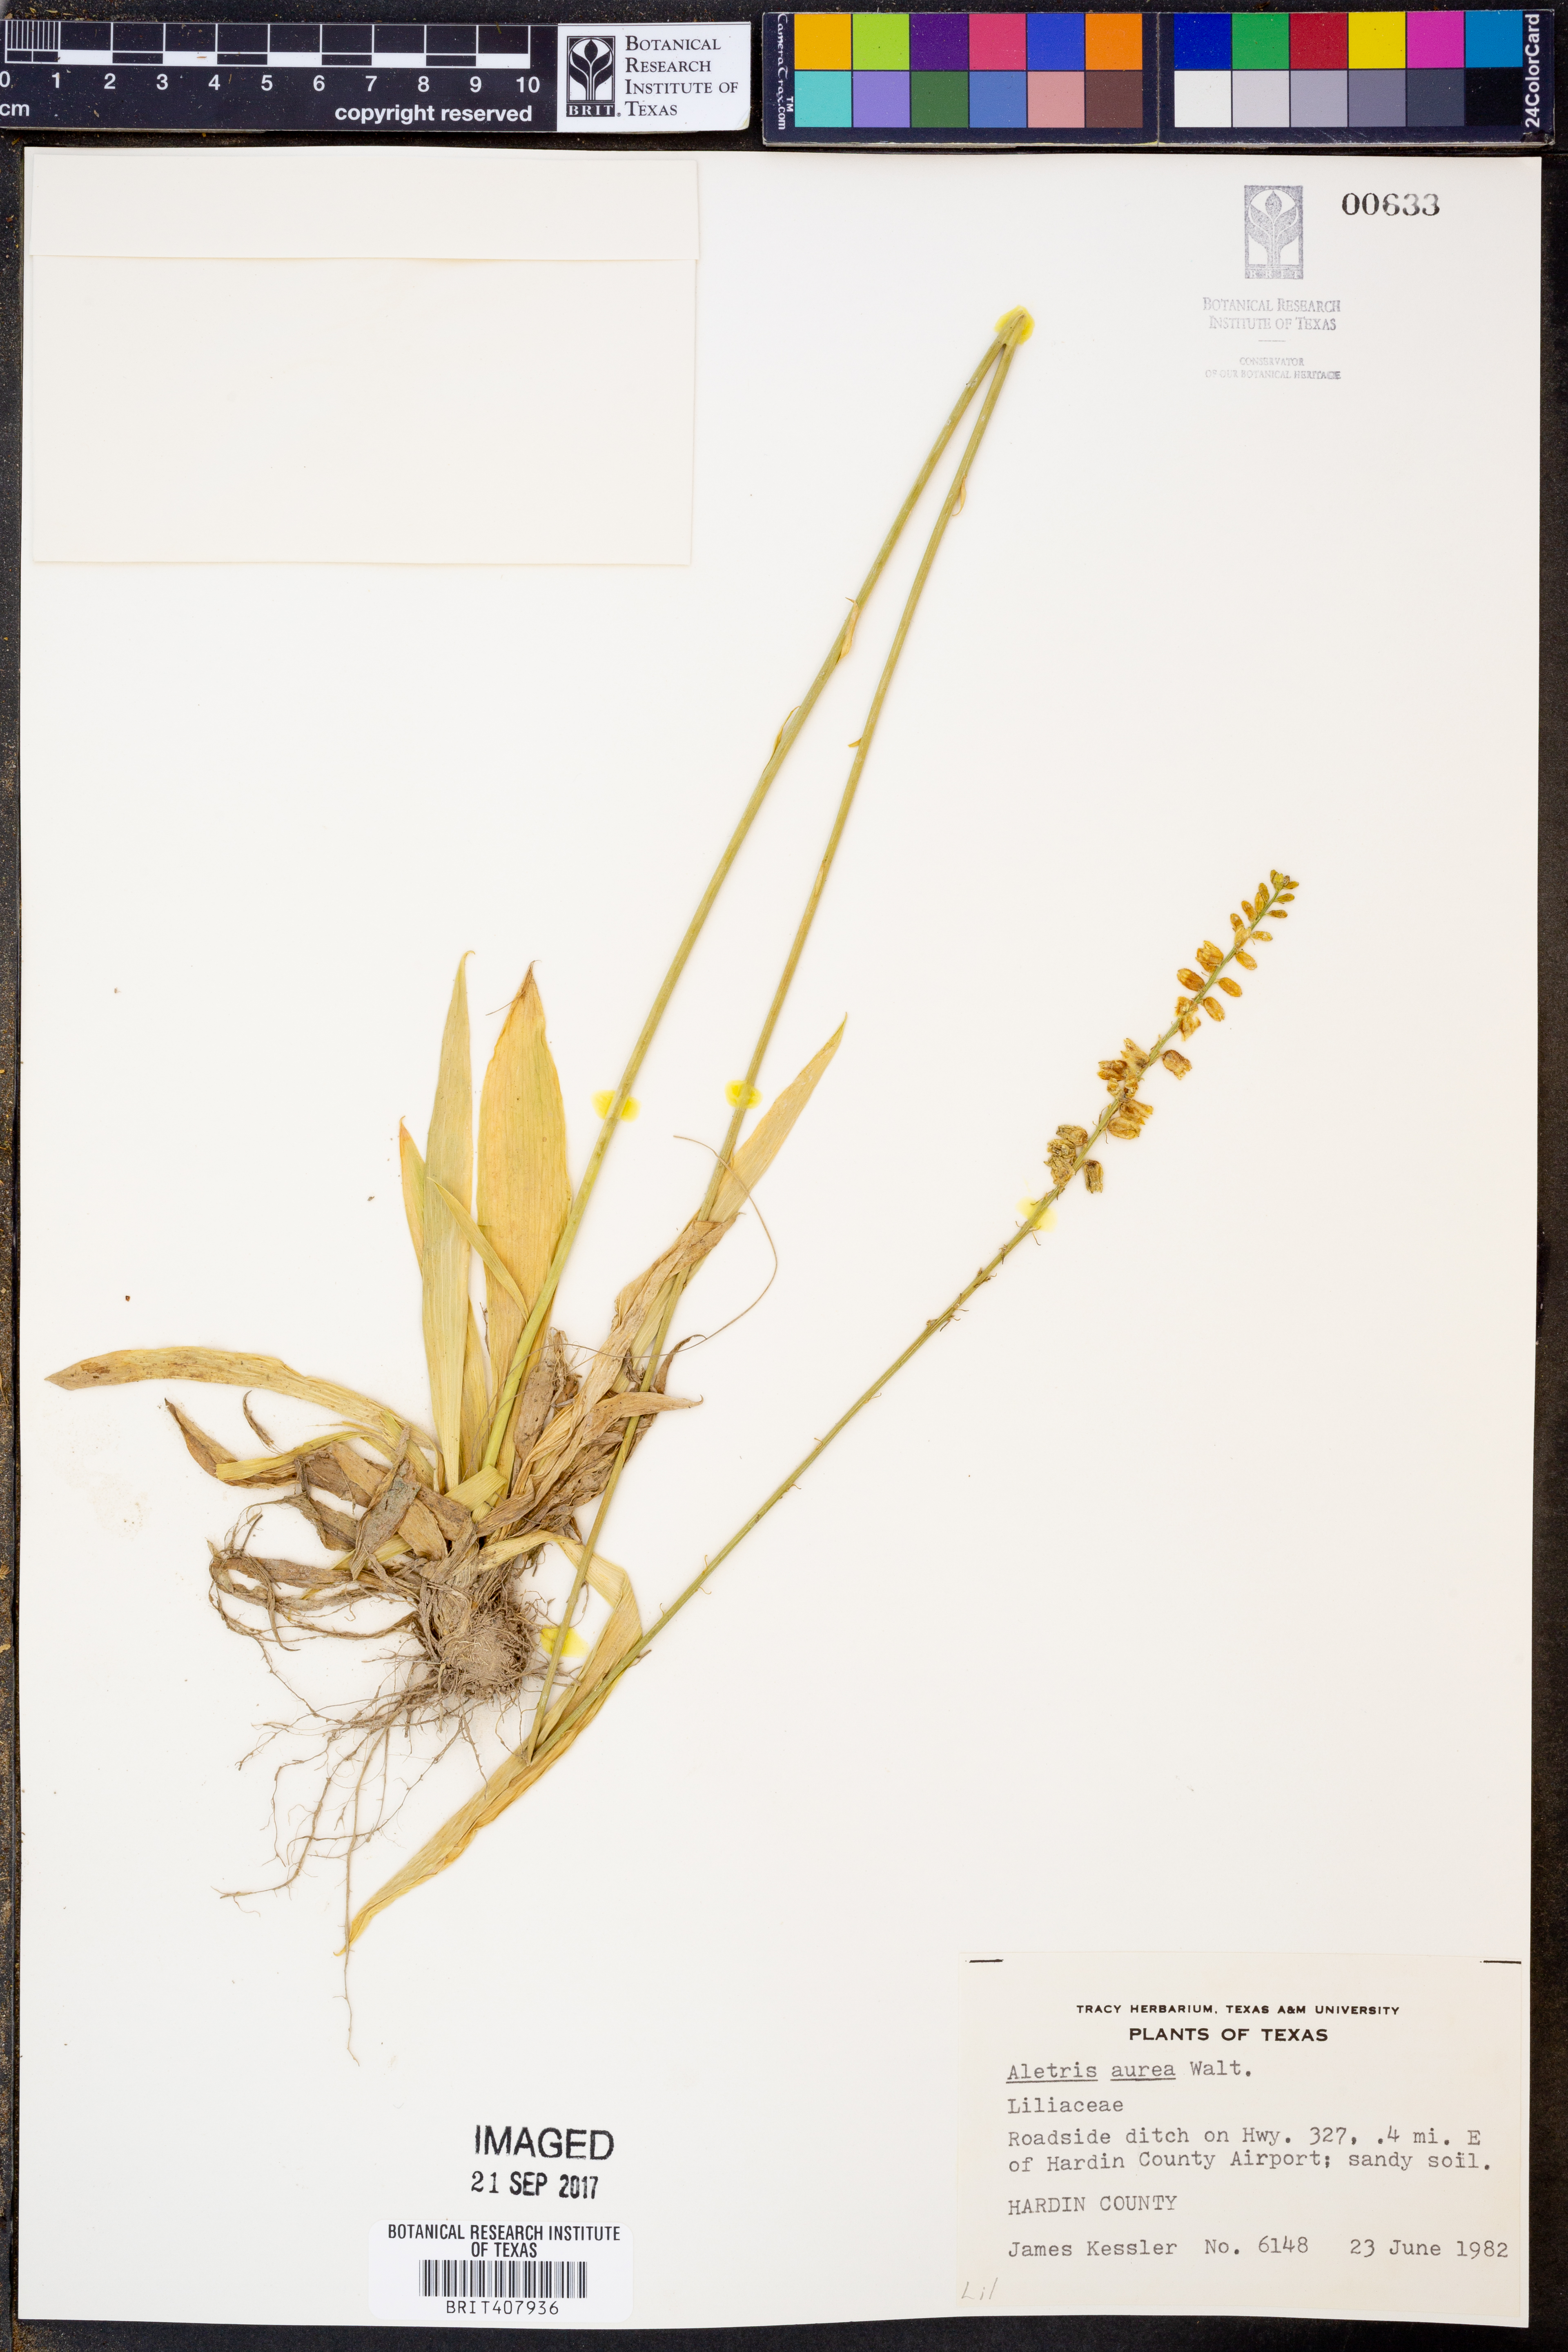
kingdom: Plantae
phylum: Tracheophyta
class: Liliopsida
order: Dioscoreales
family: Nartheciaceae
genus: Aletris
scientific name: Aletris aurea
